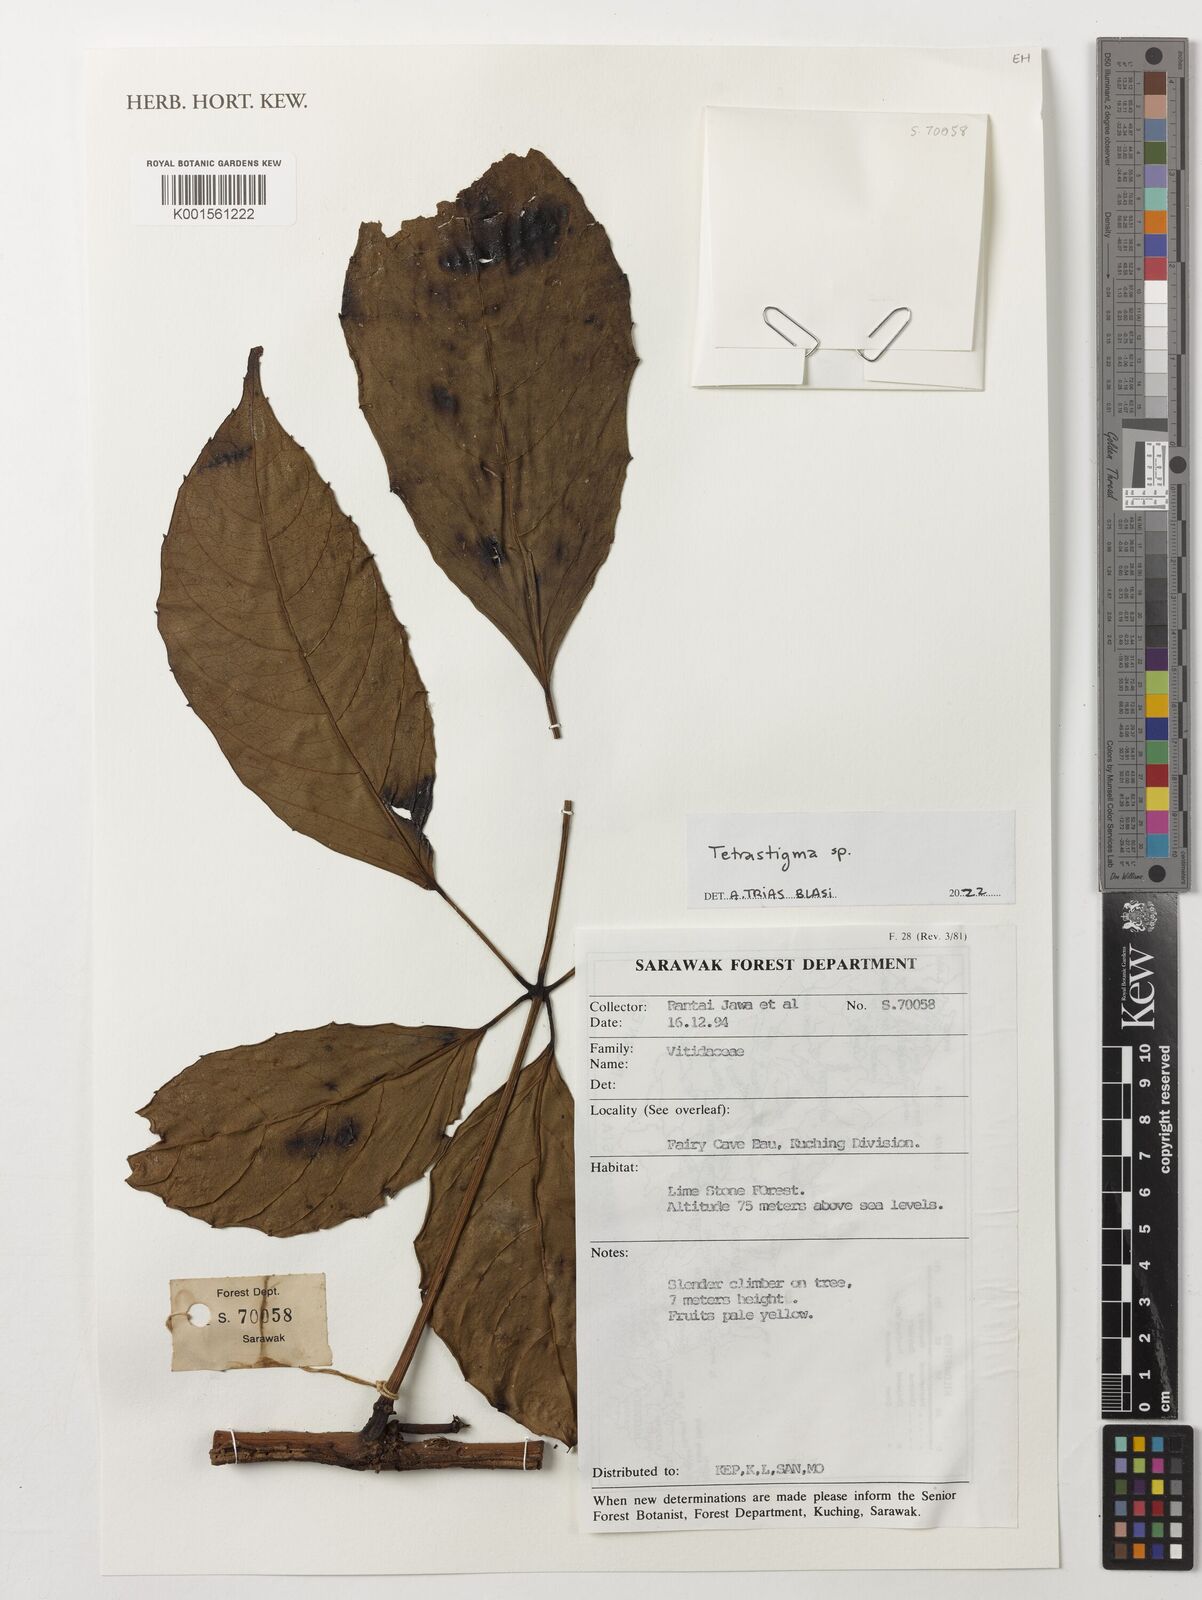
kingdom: Plantae
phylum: Tracheophyta
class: Magnoliopsida
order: Vitales
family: Vitaceae
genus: Tetrastigma
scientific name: Tetrastigma
